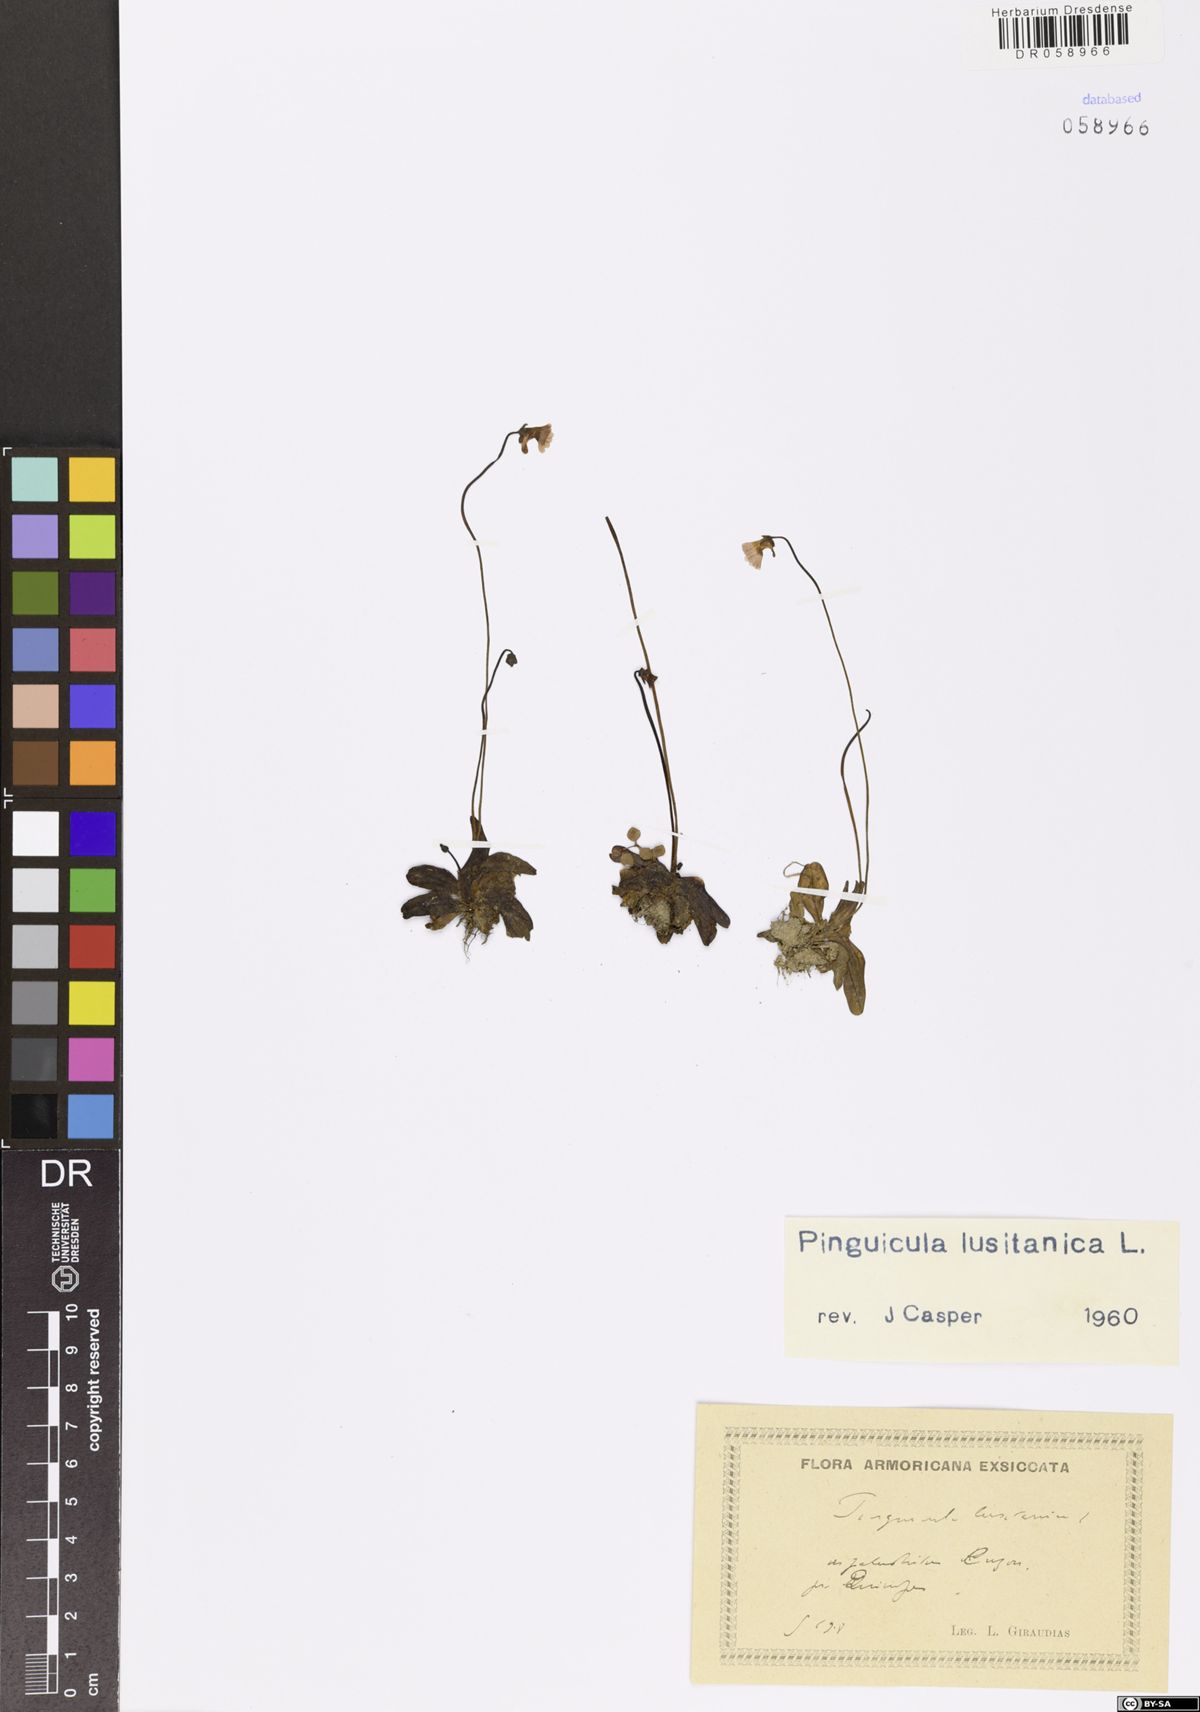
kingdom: Plantae
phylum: Tracheophyta
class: Magnoliopsida
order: Lamiales
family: Lentibulariaceae
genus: Pinguicula
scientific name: Pinguicula lusitanica
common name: Pale butterwort
